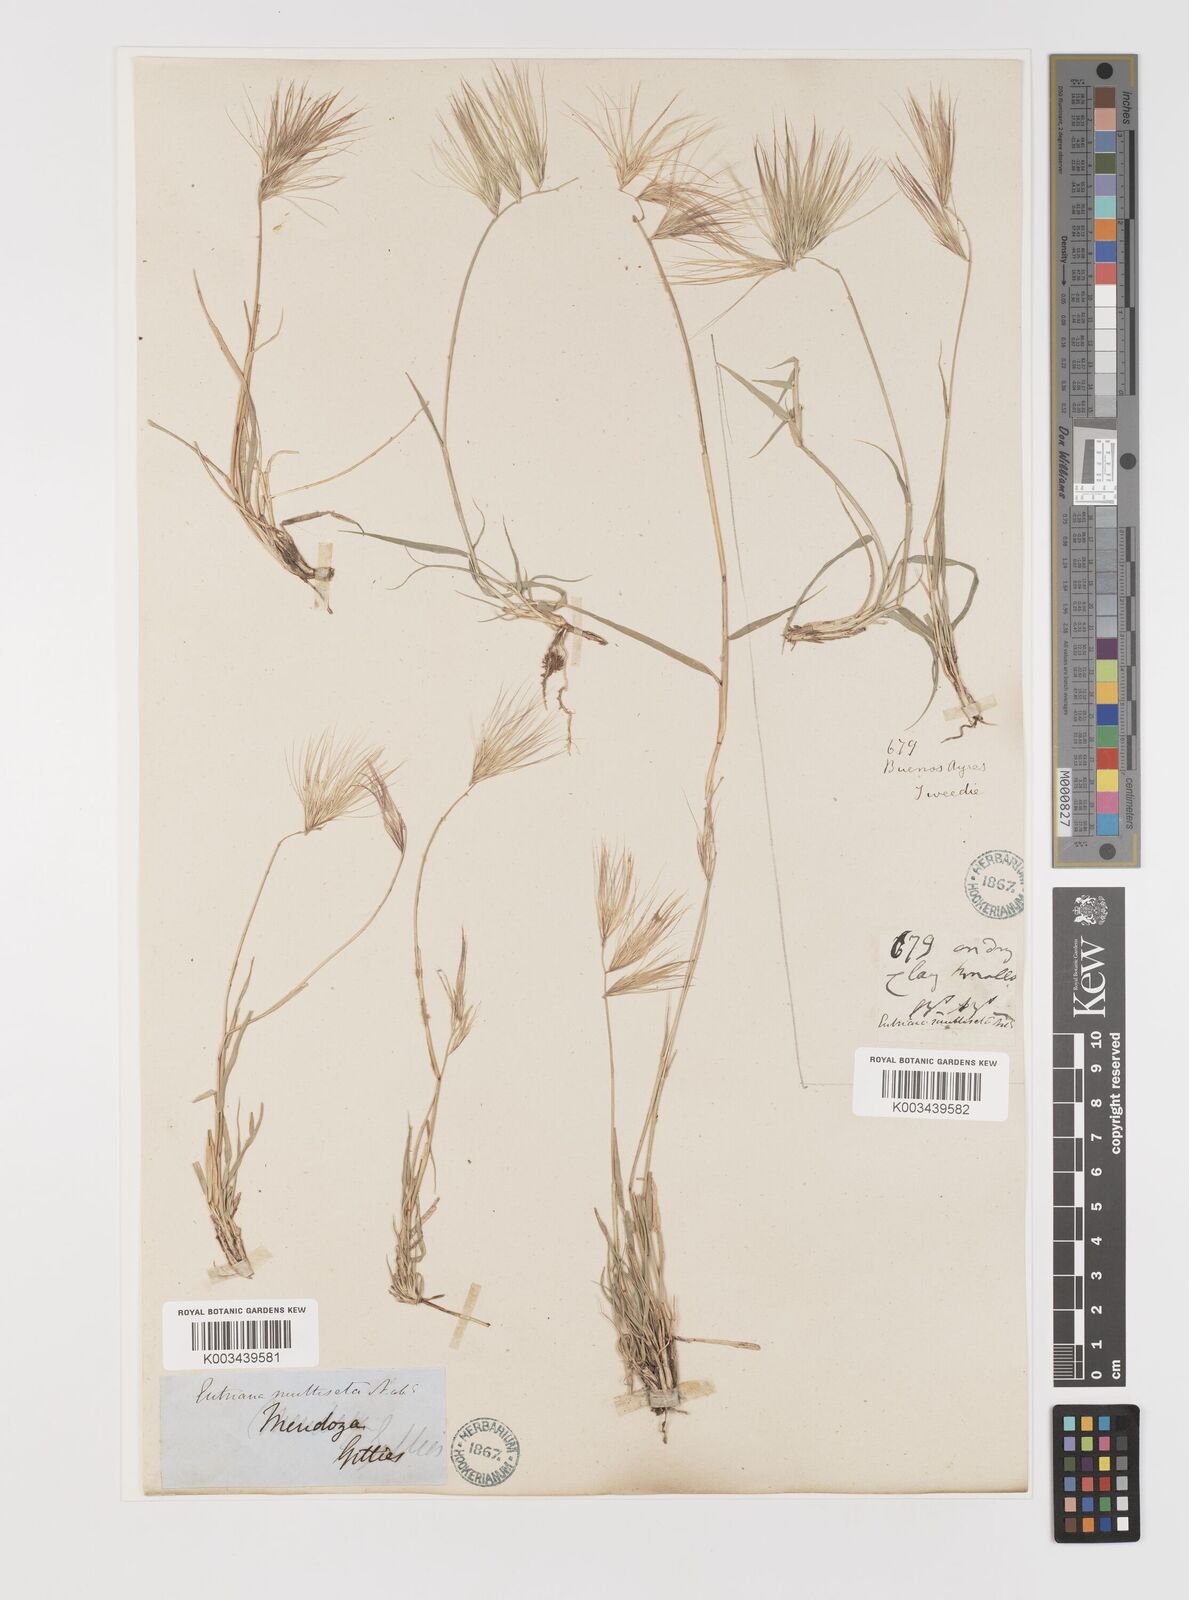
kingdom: Plantae
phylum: Tracheophyta
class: Liliopsida
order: Poales
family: Poaceae
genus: Bouteloua
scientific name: Bouteloua megapotamica
